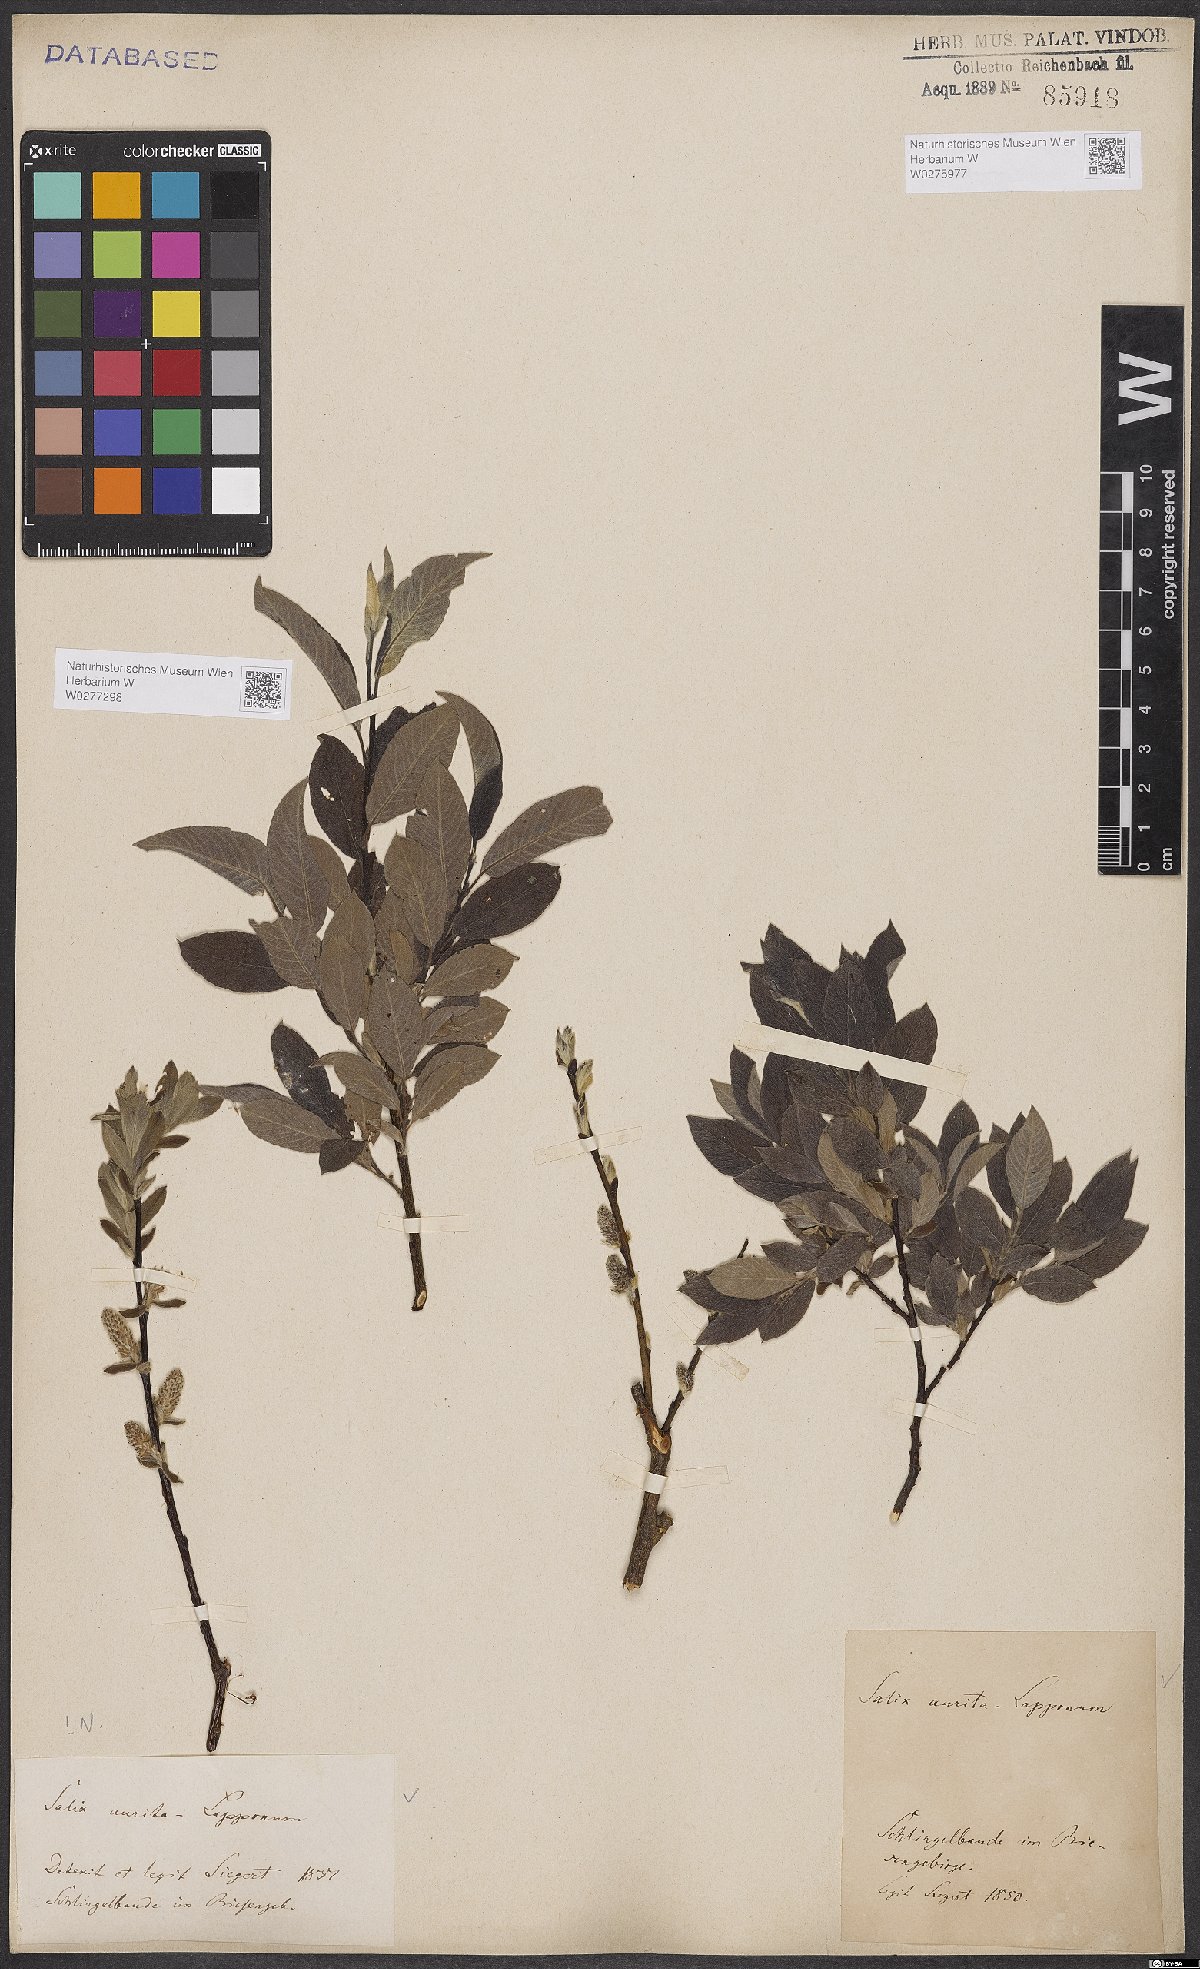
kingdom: Plantae
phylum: Tracheophyta
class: Magnoliopsida
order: Malpighiales
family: Salicaceae
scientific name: Salicaceae
